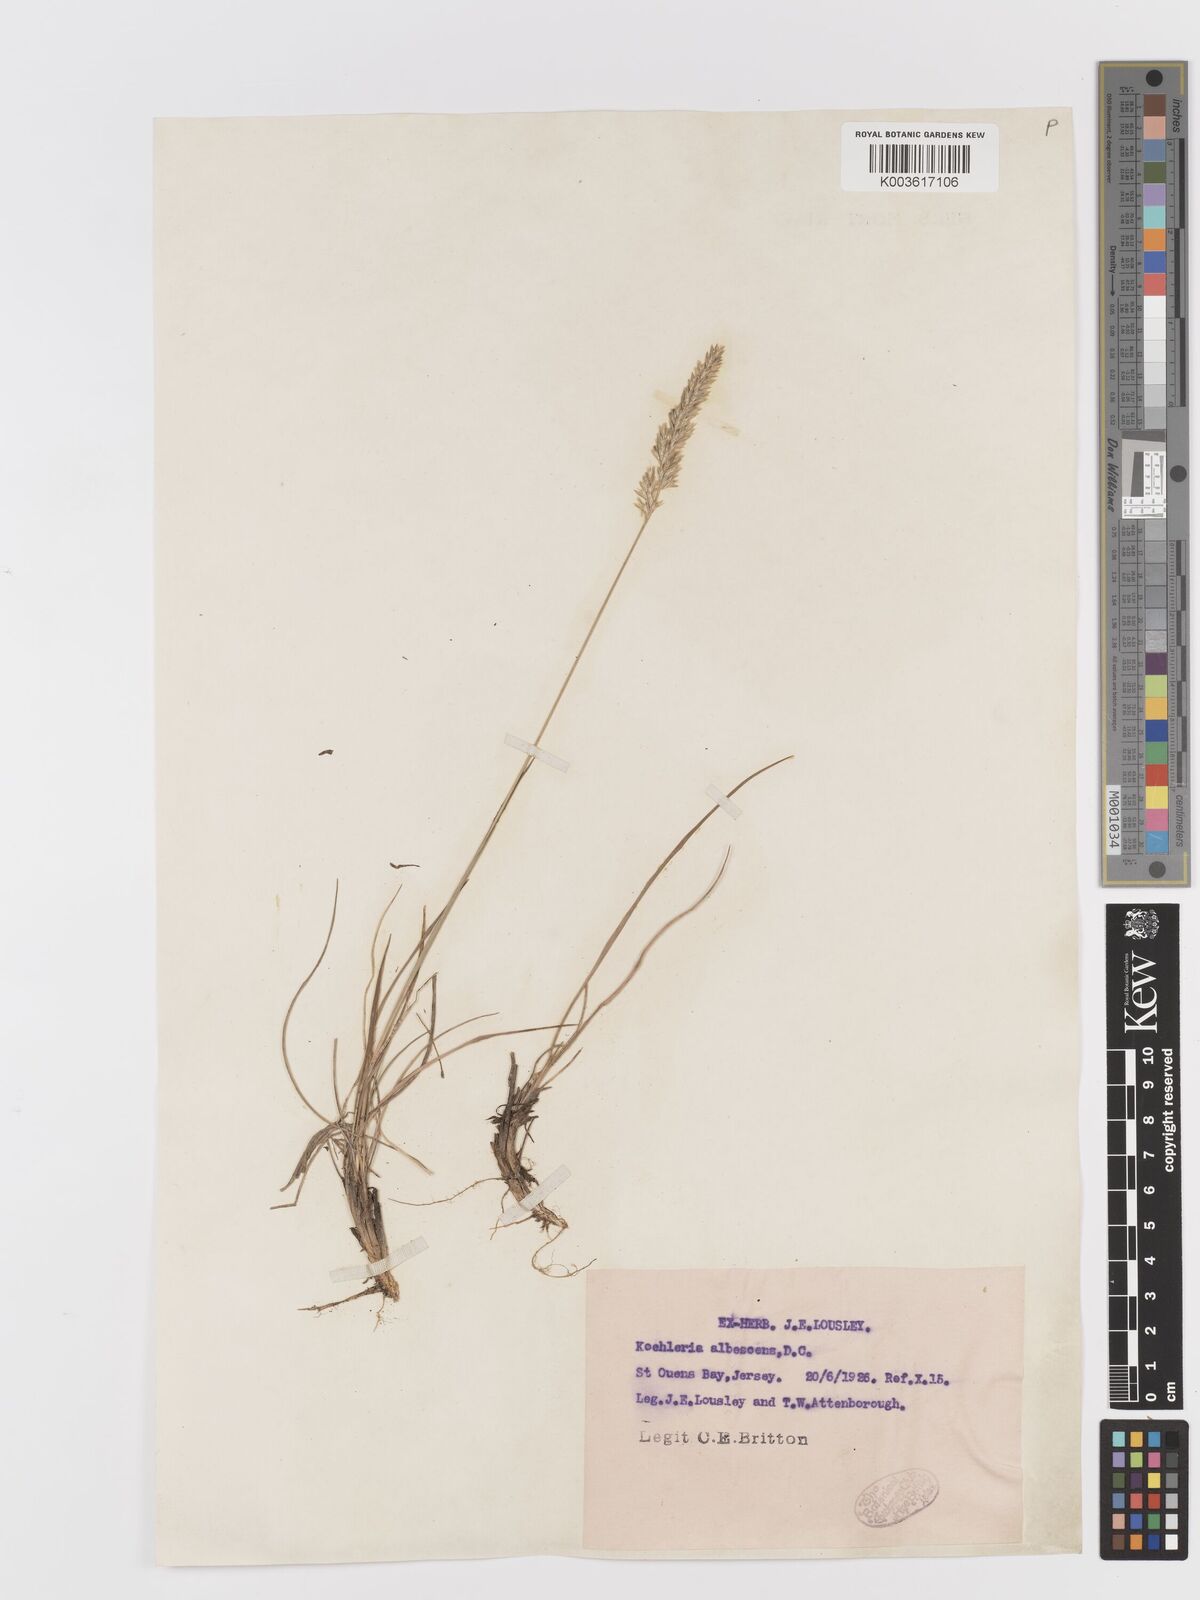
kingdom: Plantae
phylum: Tracheophyta
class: Liliopsida
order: Poales
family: Poaceae
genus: Koeleria
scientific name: Koeleria macrantha
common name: Crested hair-grass
